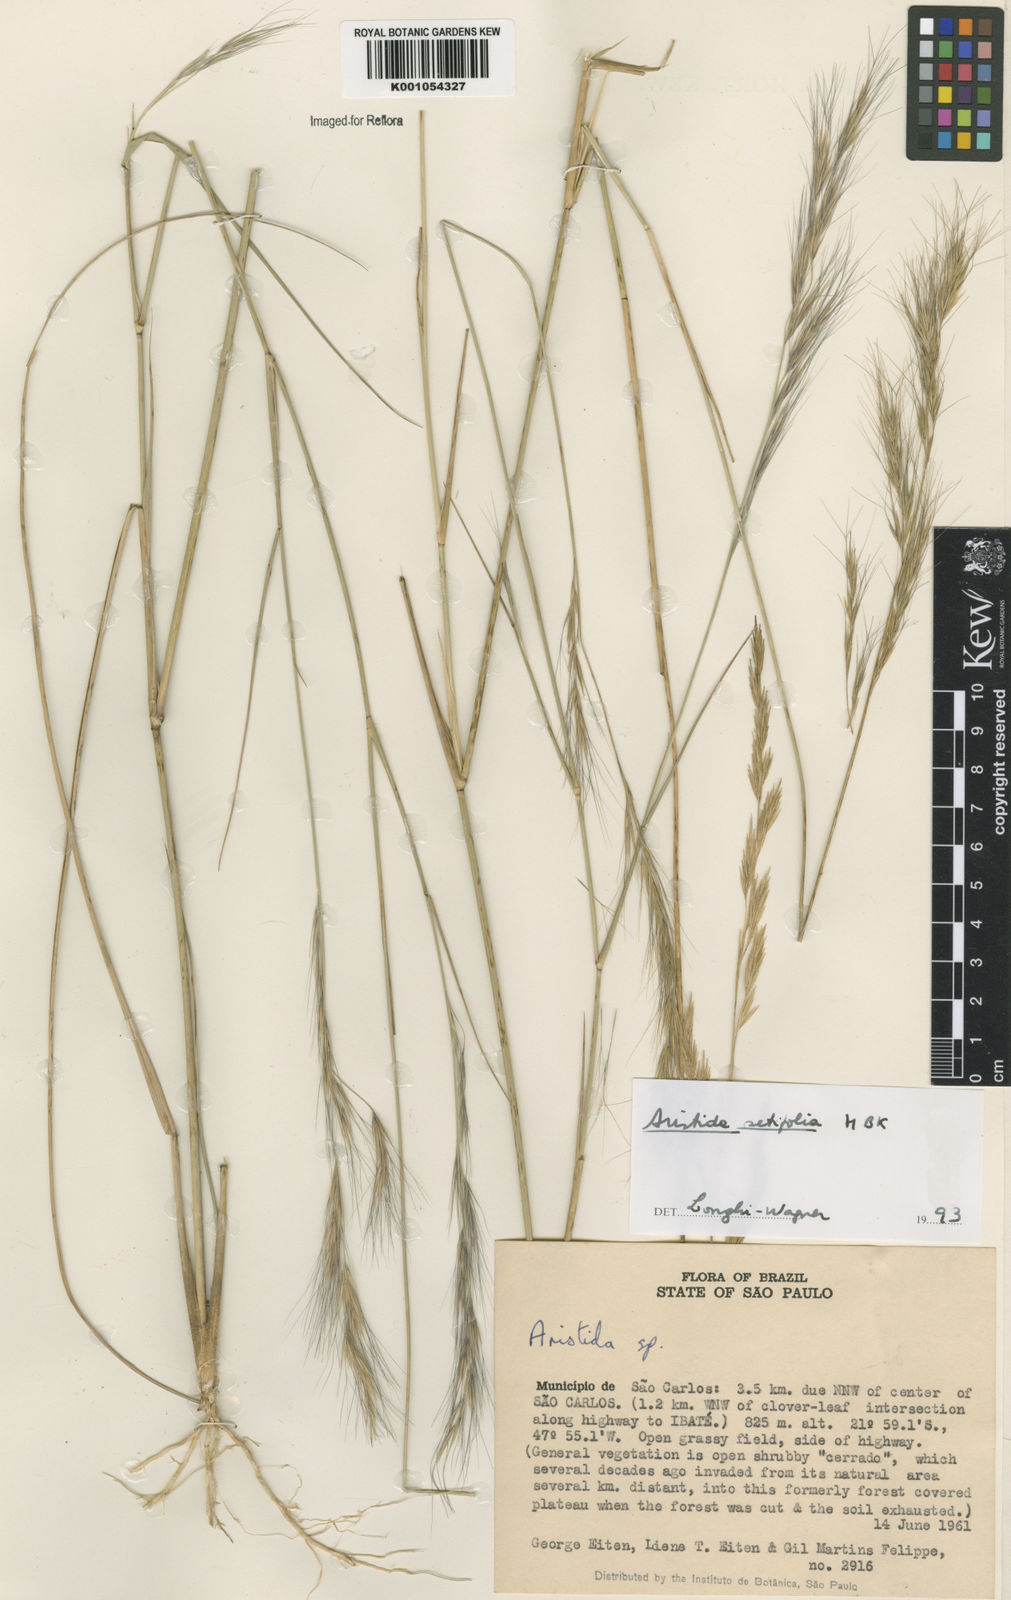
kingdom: Plantae
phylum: Tracheophyta
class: Liliopsida
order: Poales
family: Poaceae
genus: Aristida
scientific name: Aristida setifolia
